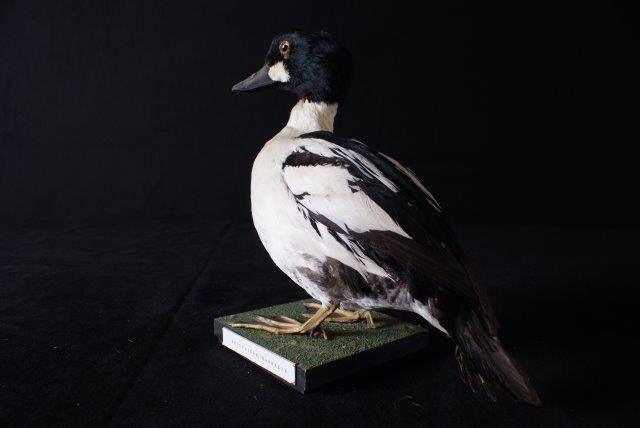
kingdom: Animalia
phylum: Chordata
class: Aves
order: Anseriformes
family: Anatidae
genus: Bucephala
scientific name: Bucephala clangula
